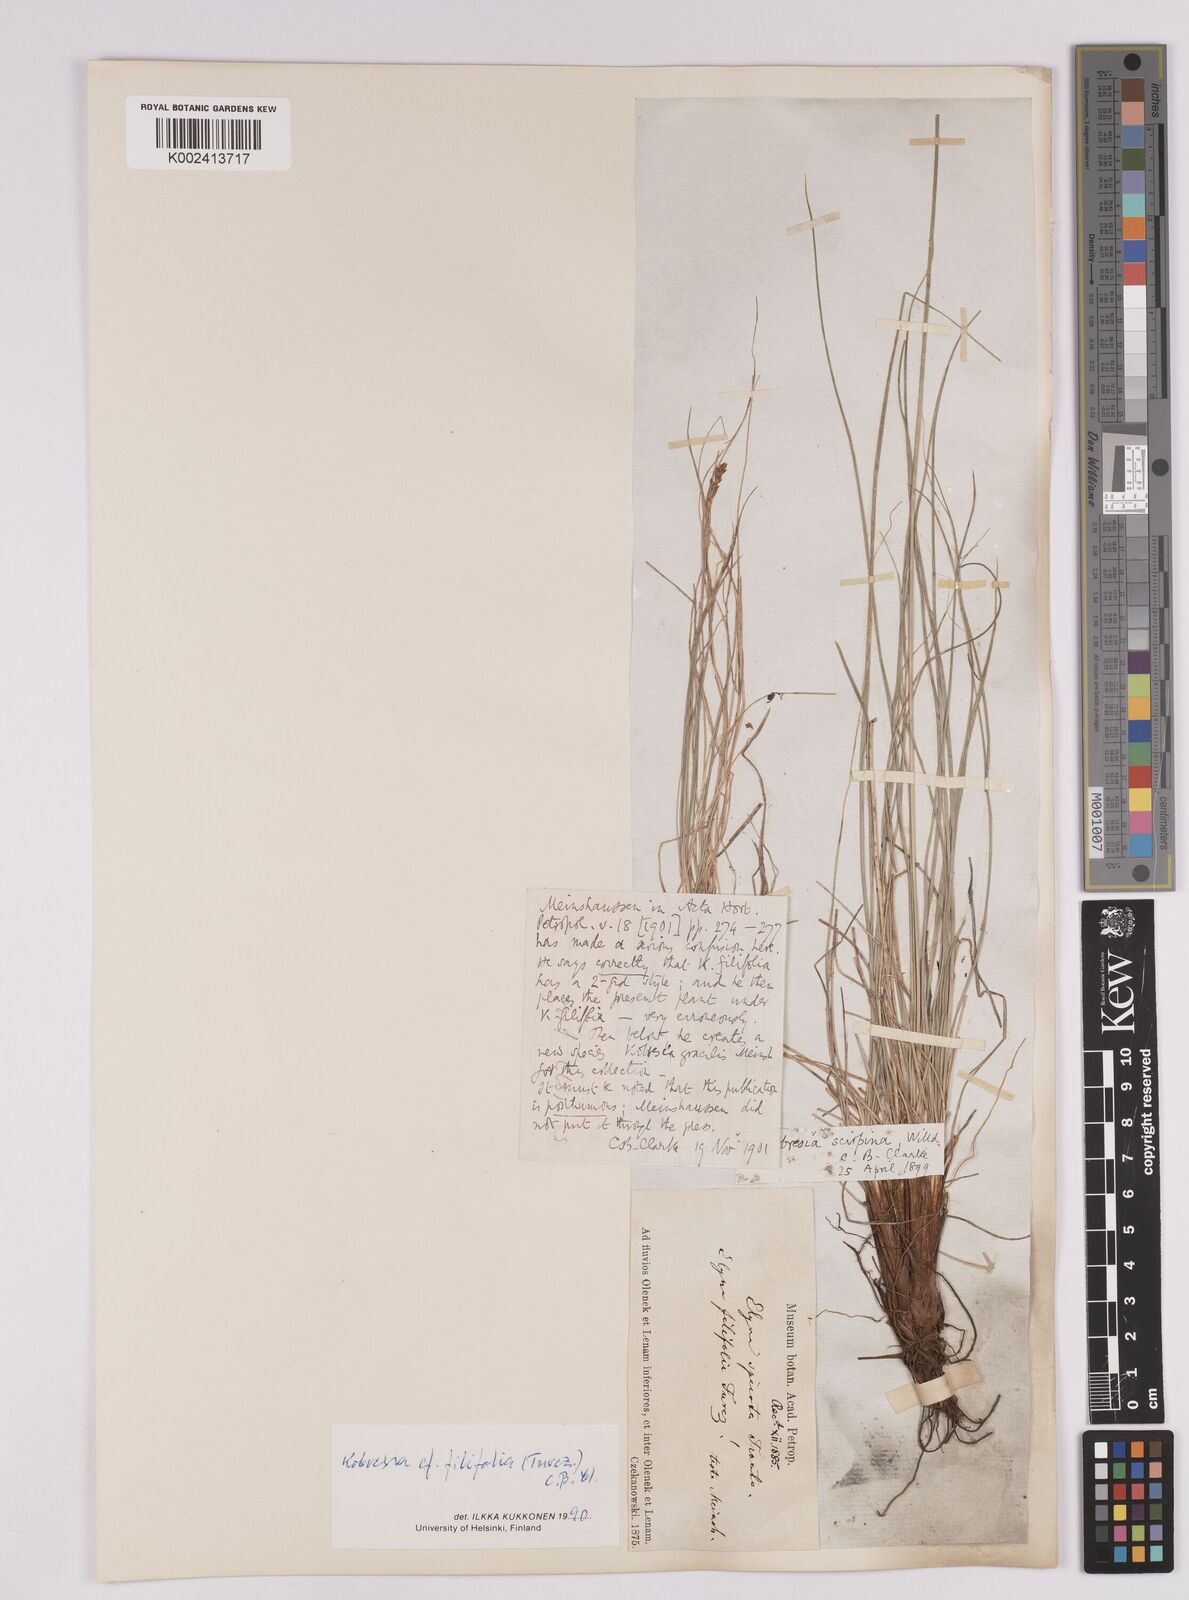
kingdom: Plantae
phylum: Tracheophyta
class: Liliopsida
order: Poales
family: Cyperaceae
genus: Carex
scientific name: Carex capillifolia
